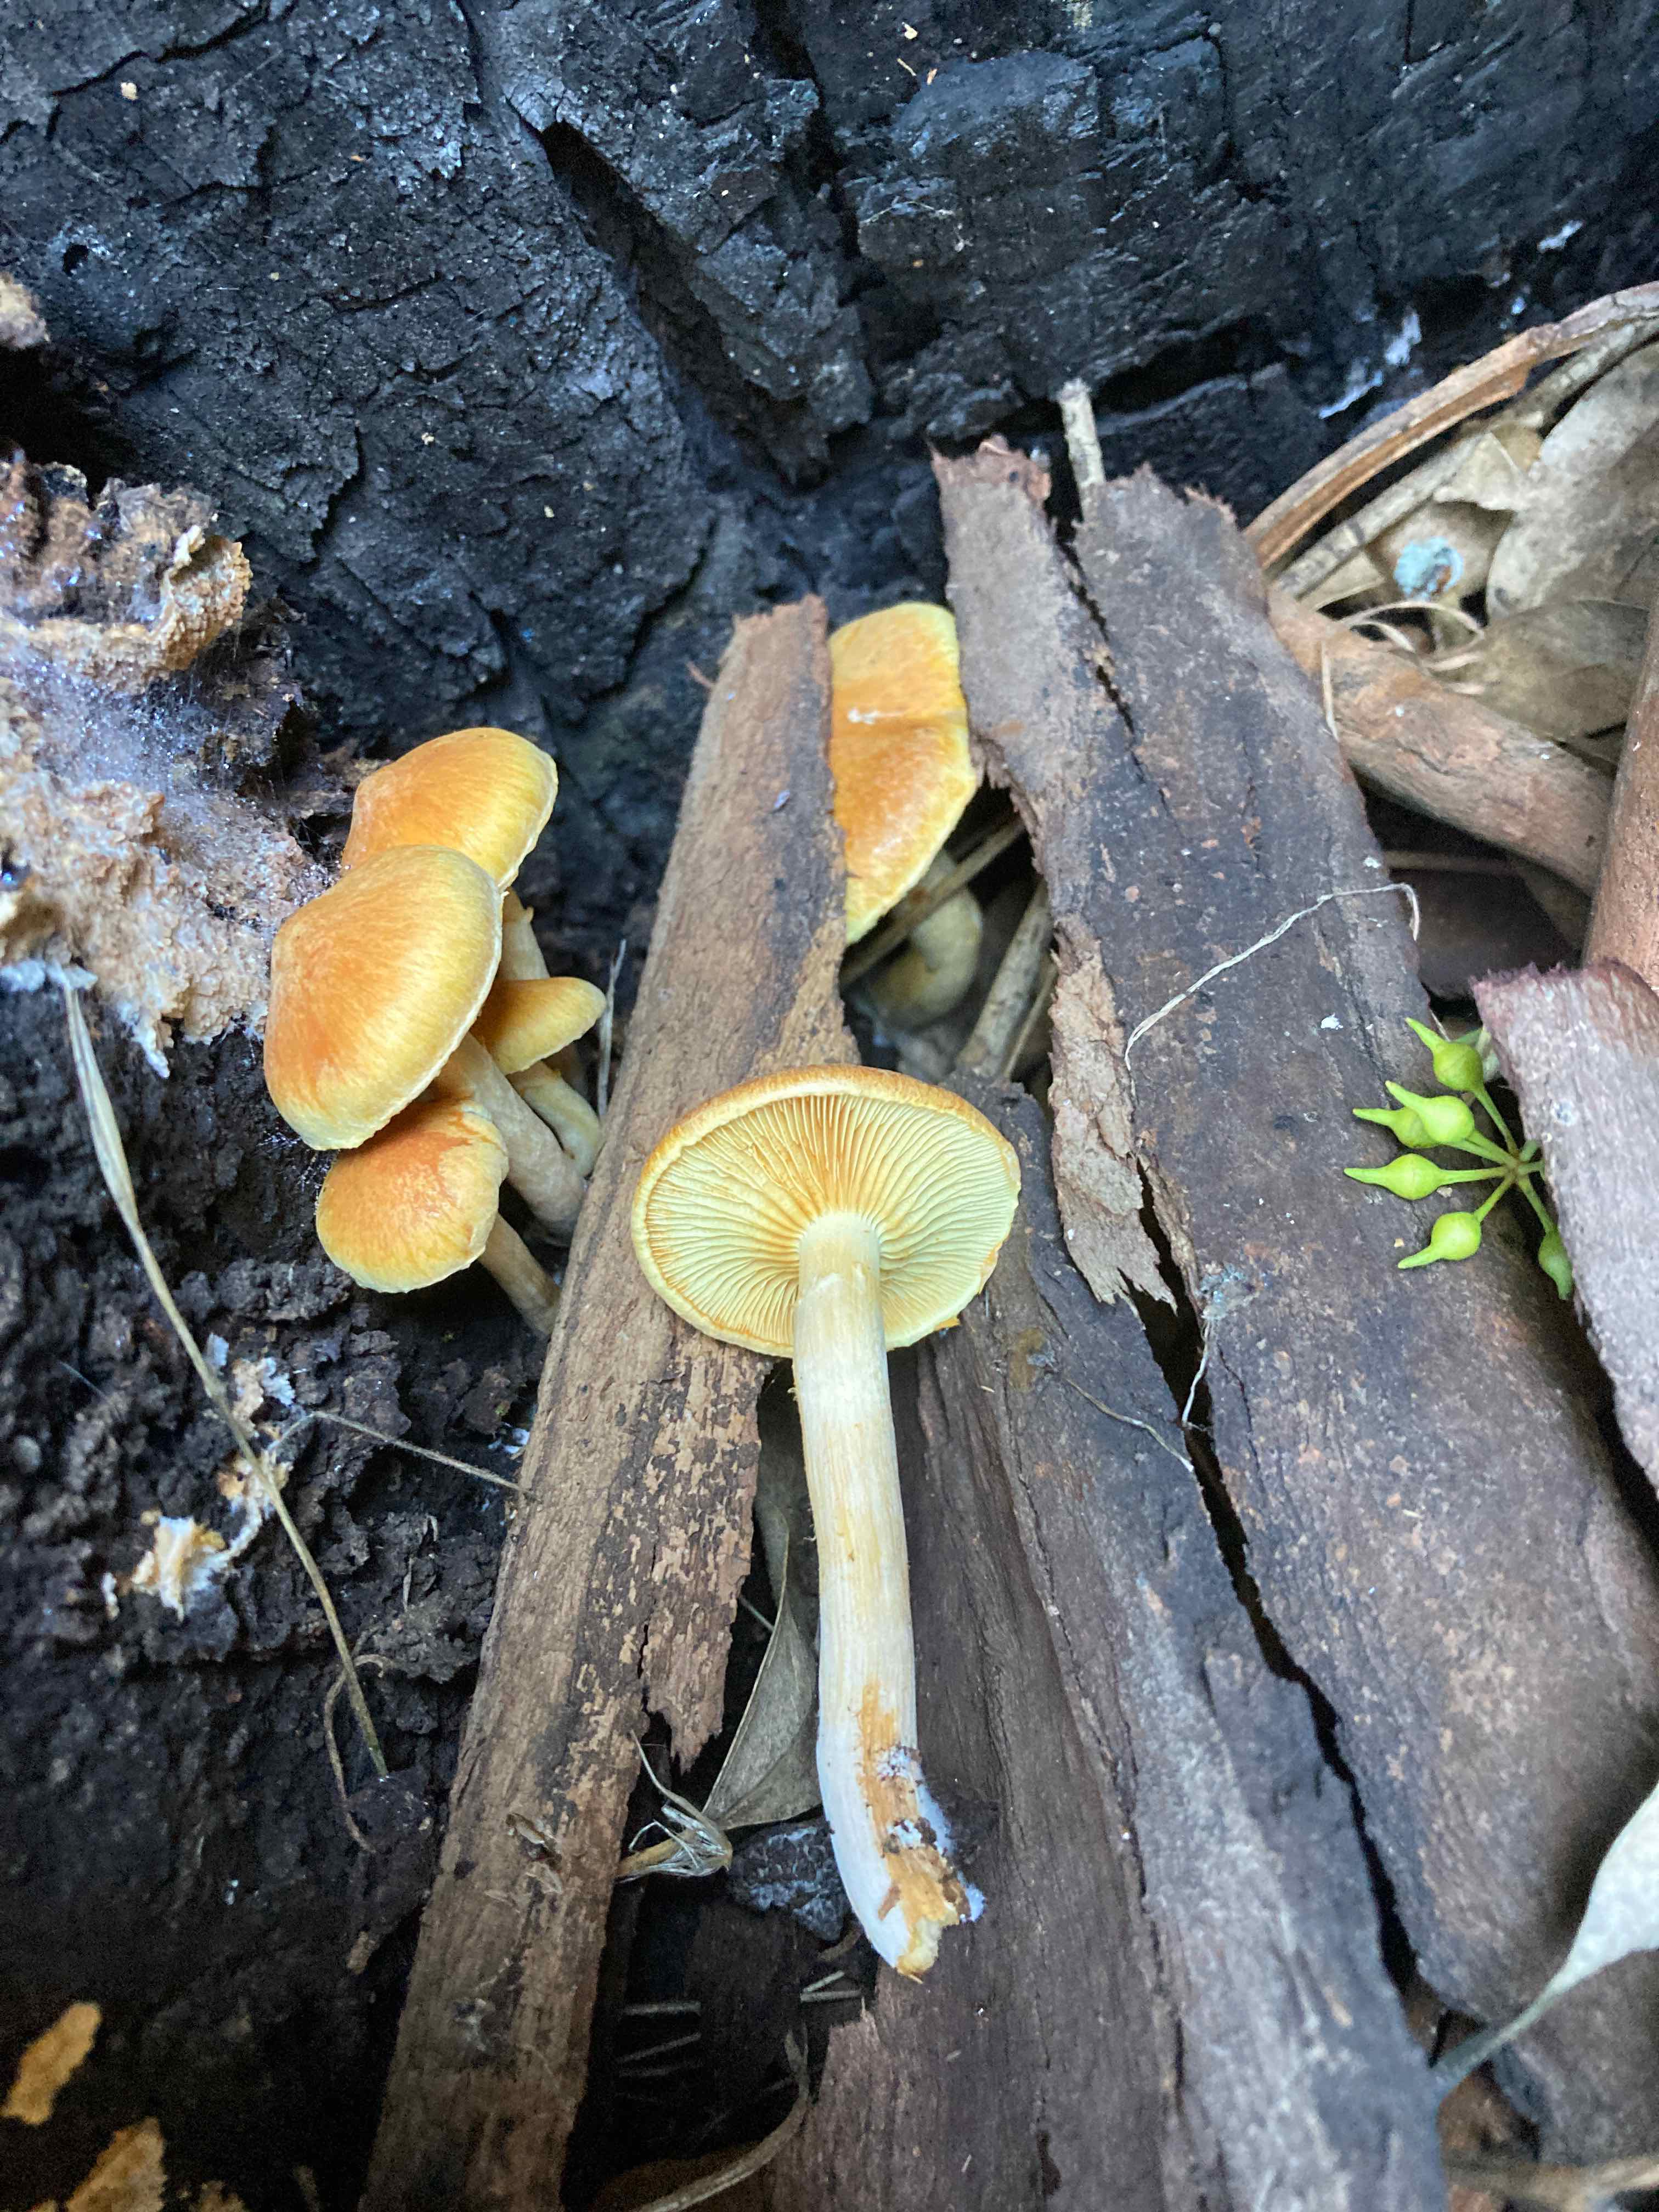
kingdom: Fungi
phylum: Basidiomycota
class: Agaricomycetes
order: Agaricales
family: Hymenogastraceae
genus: Gymnopilus
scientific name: Gymnopilus penetrans
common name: plettet flammehat
